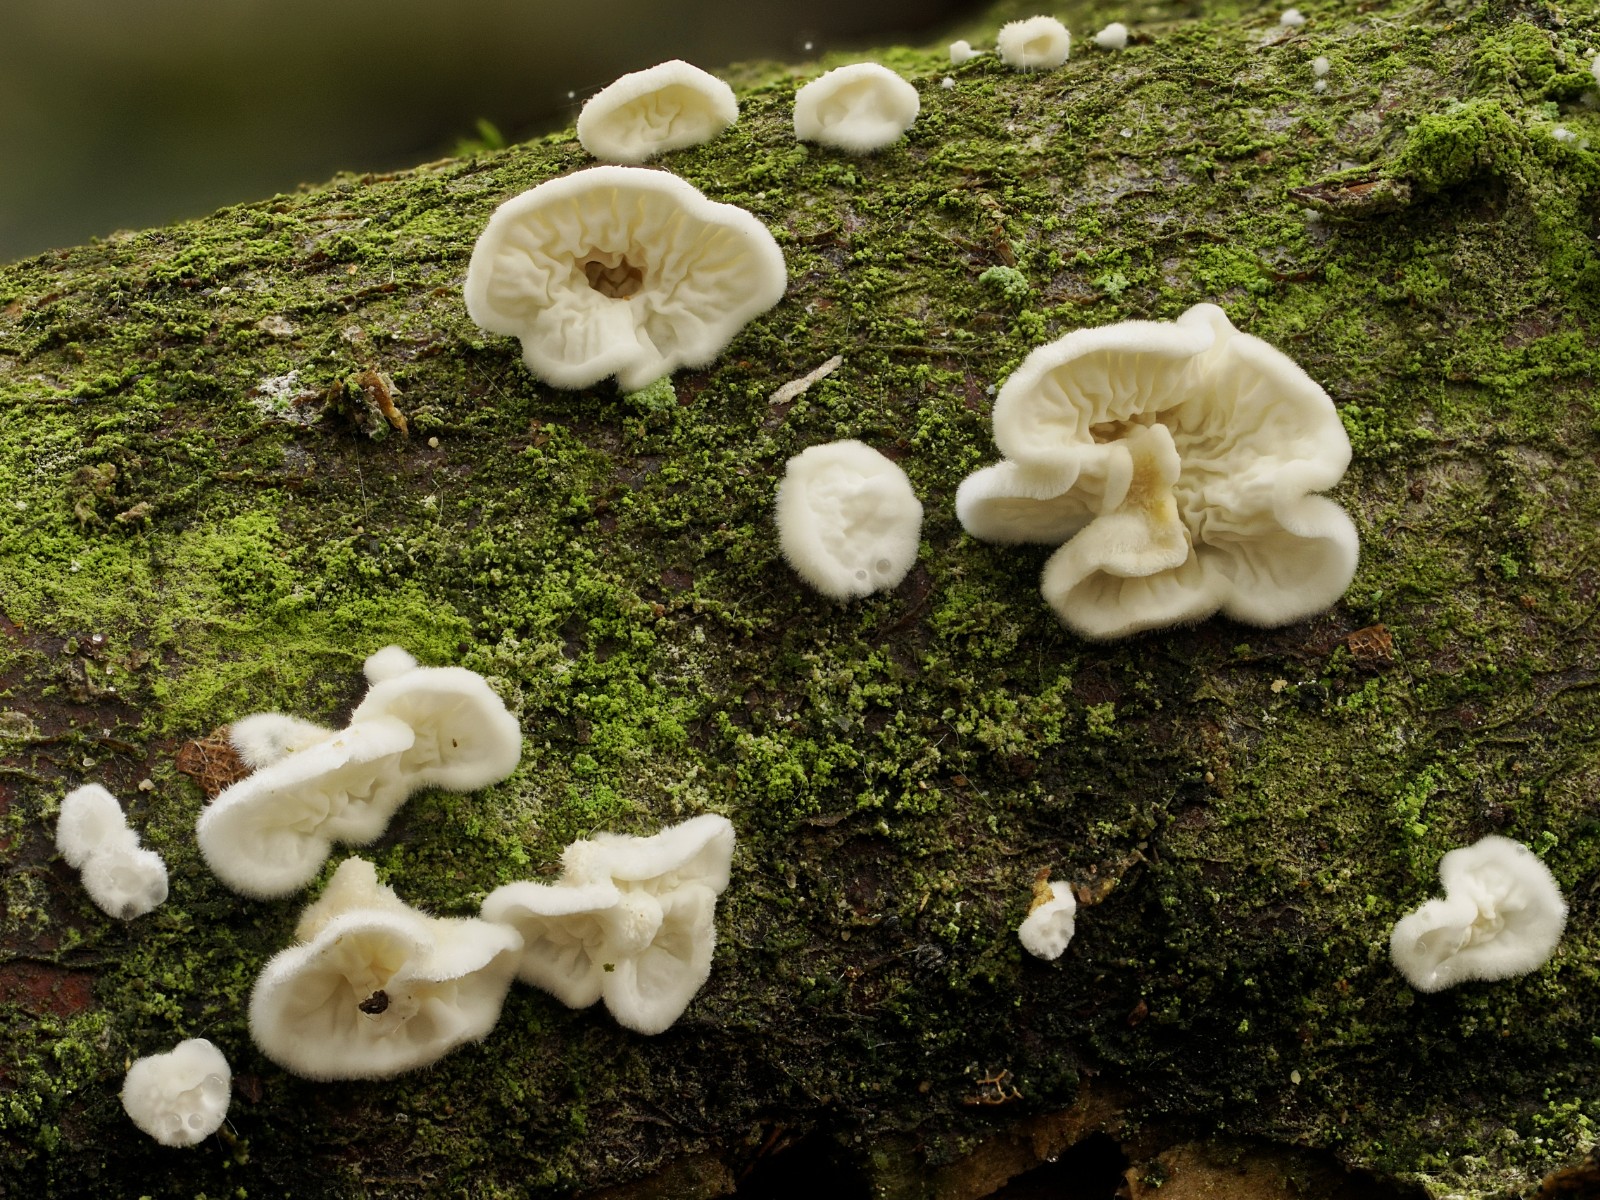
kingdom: Fungi
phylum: Basidiomycota
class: Agaricomycetes
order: Amylocorticiales
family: Amylocorticiaceae
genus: Plicaturopsis
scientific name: Plicaturopsis crispa
